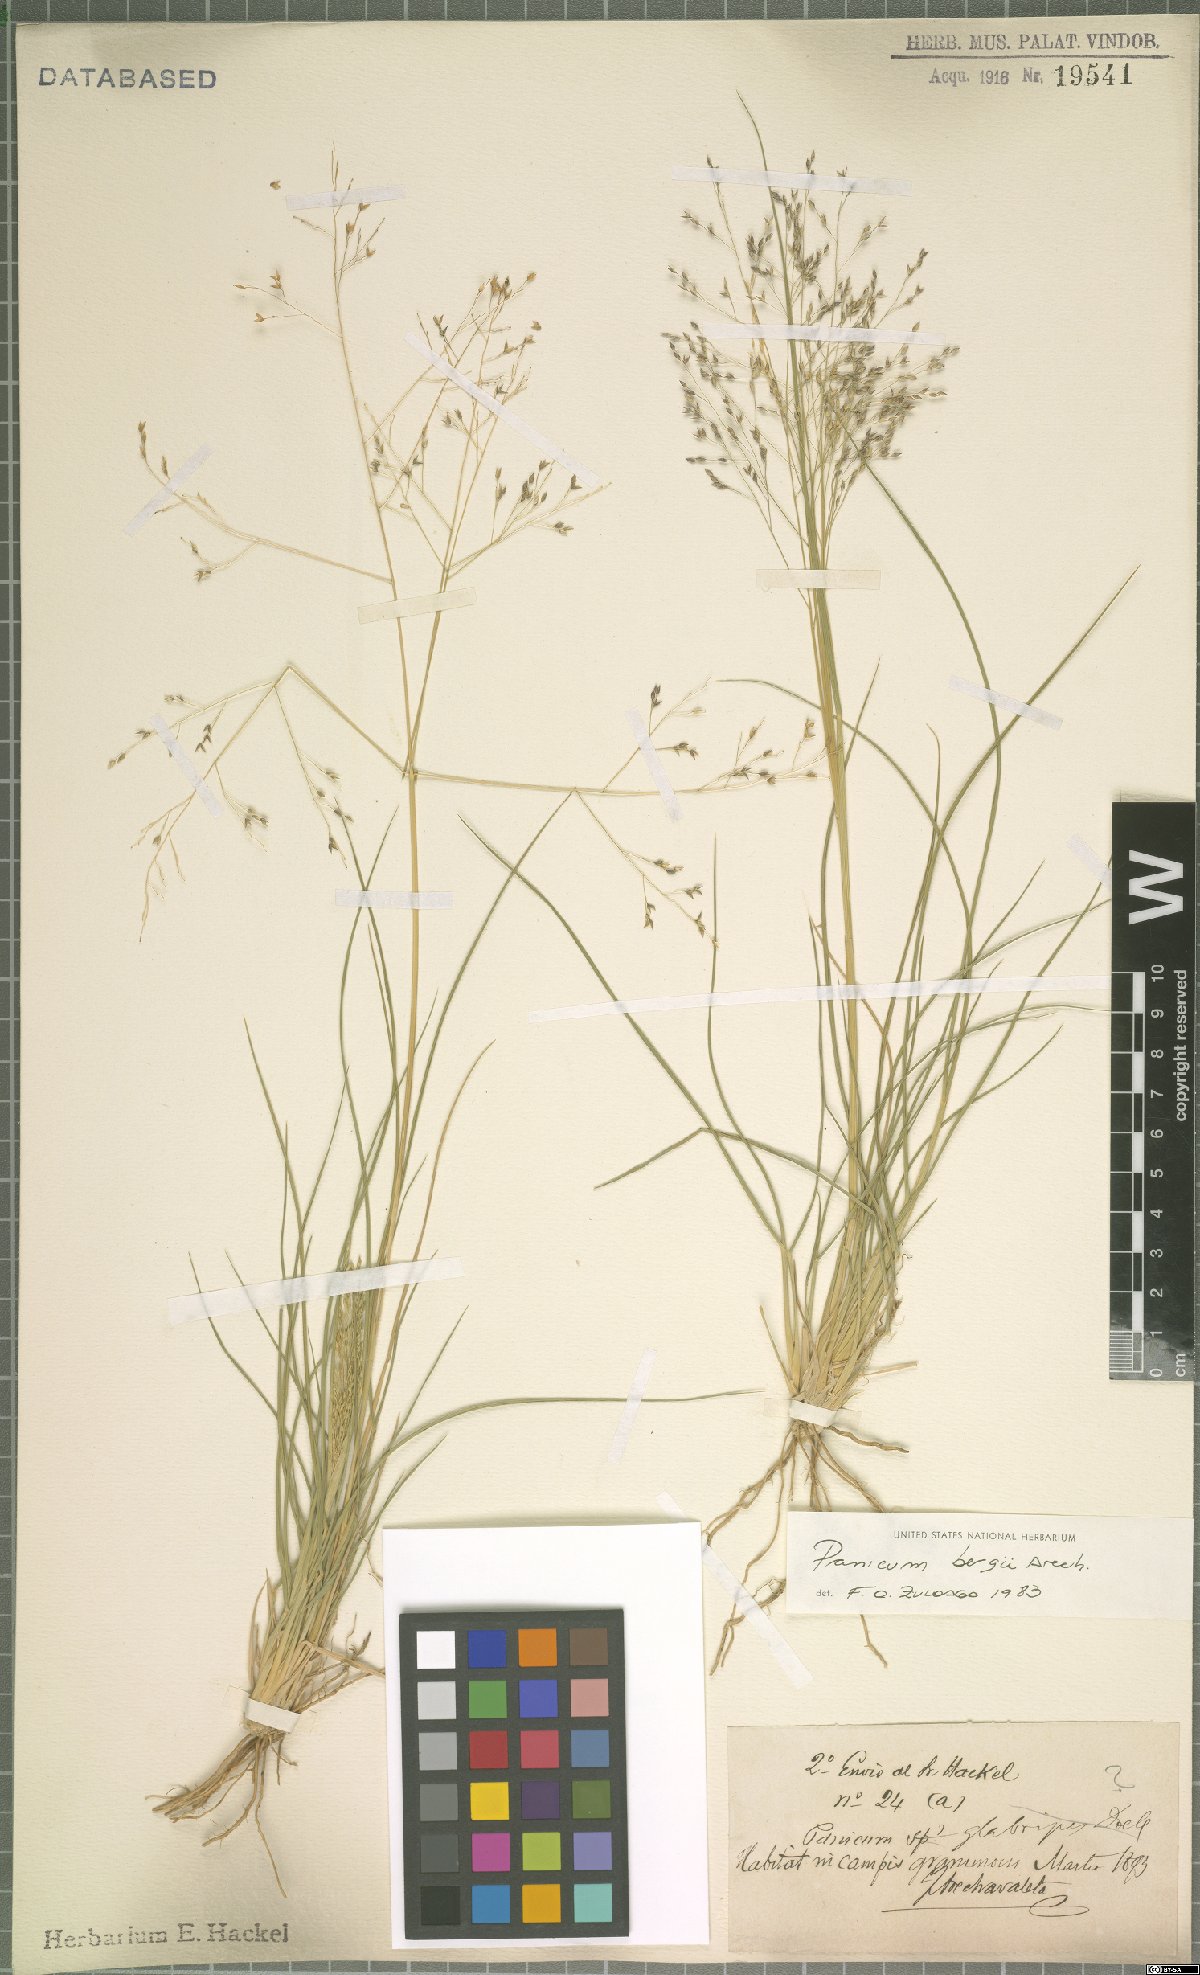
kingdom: Plantae
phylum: Tracheophyta
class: Liliopsida
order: Poales
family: Poaceae
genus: Panicum
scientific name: Panicum bergii
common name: Berg's panicgrass
